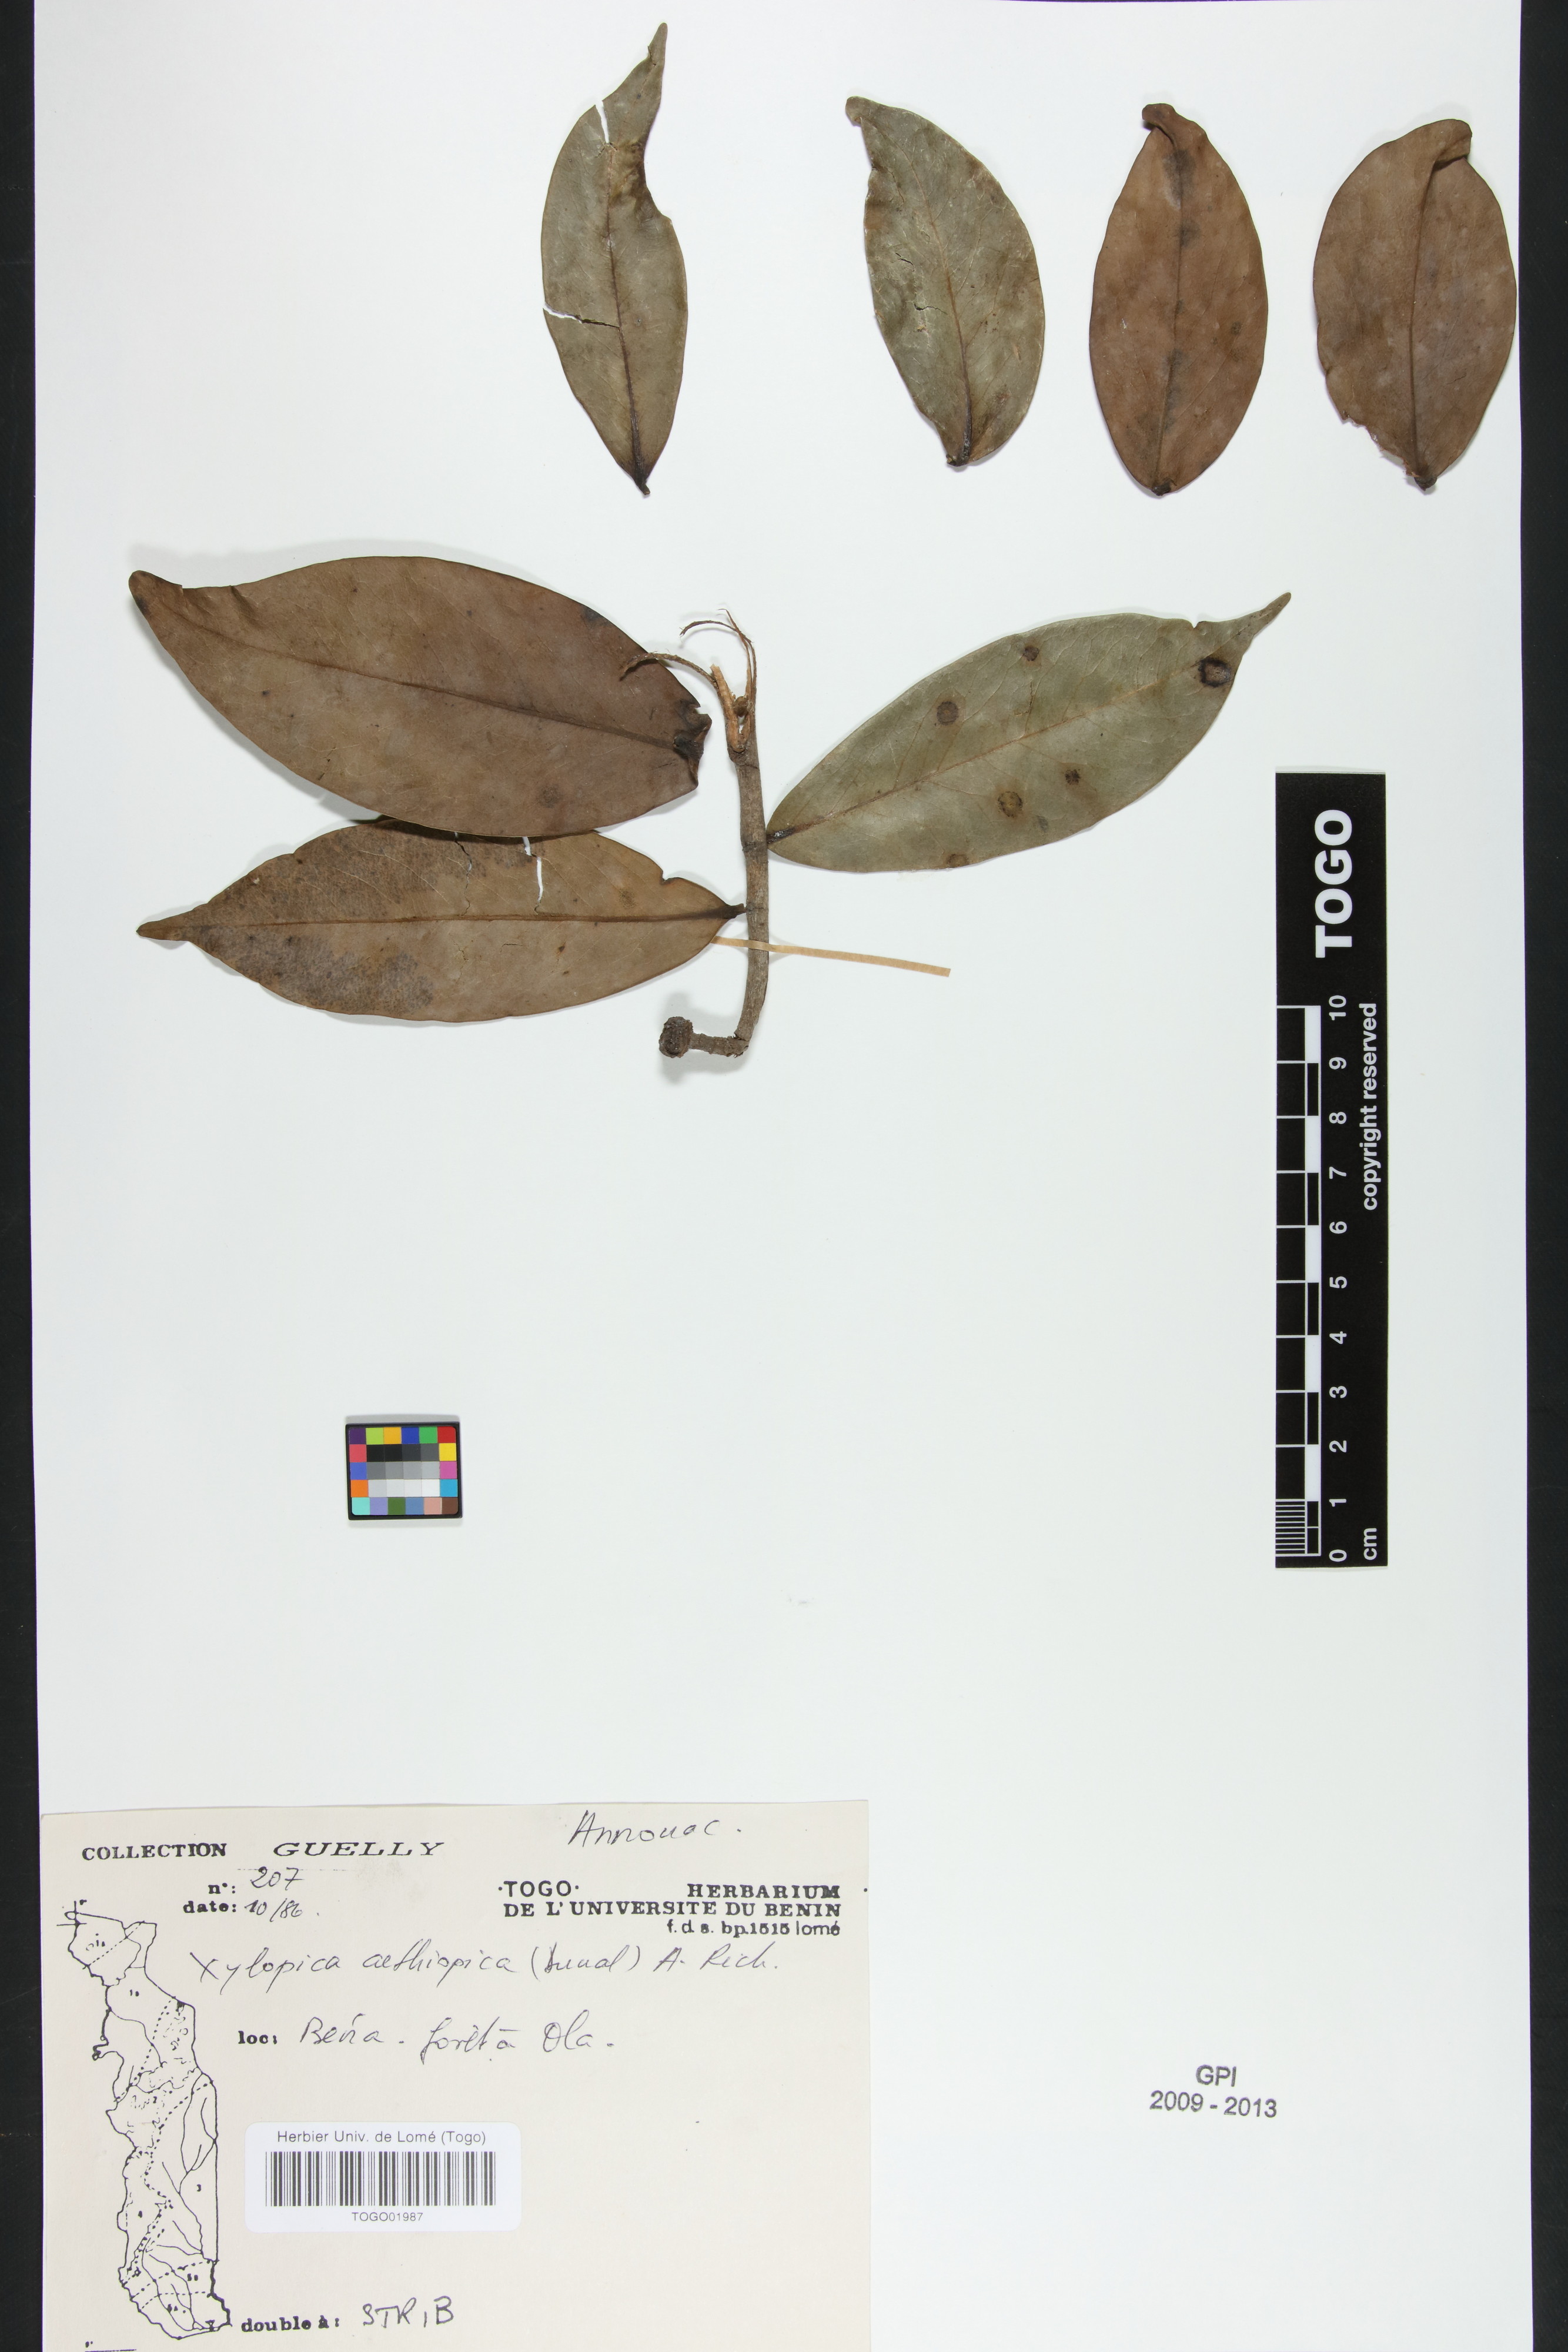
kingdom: Plantae
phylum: Tracheophyta
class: Magnoliopsida
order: Magnoliales
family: Annonaceae
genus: Xylopia
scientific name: Xylopia aethiopica
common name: Ethiopian-pepper
